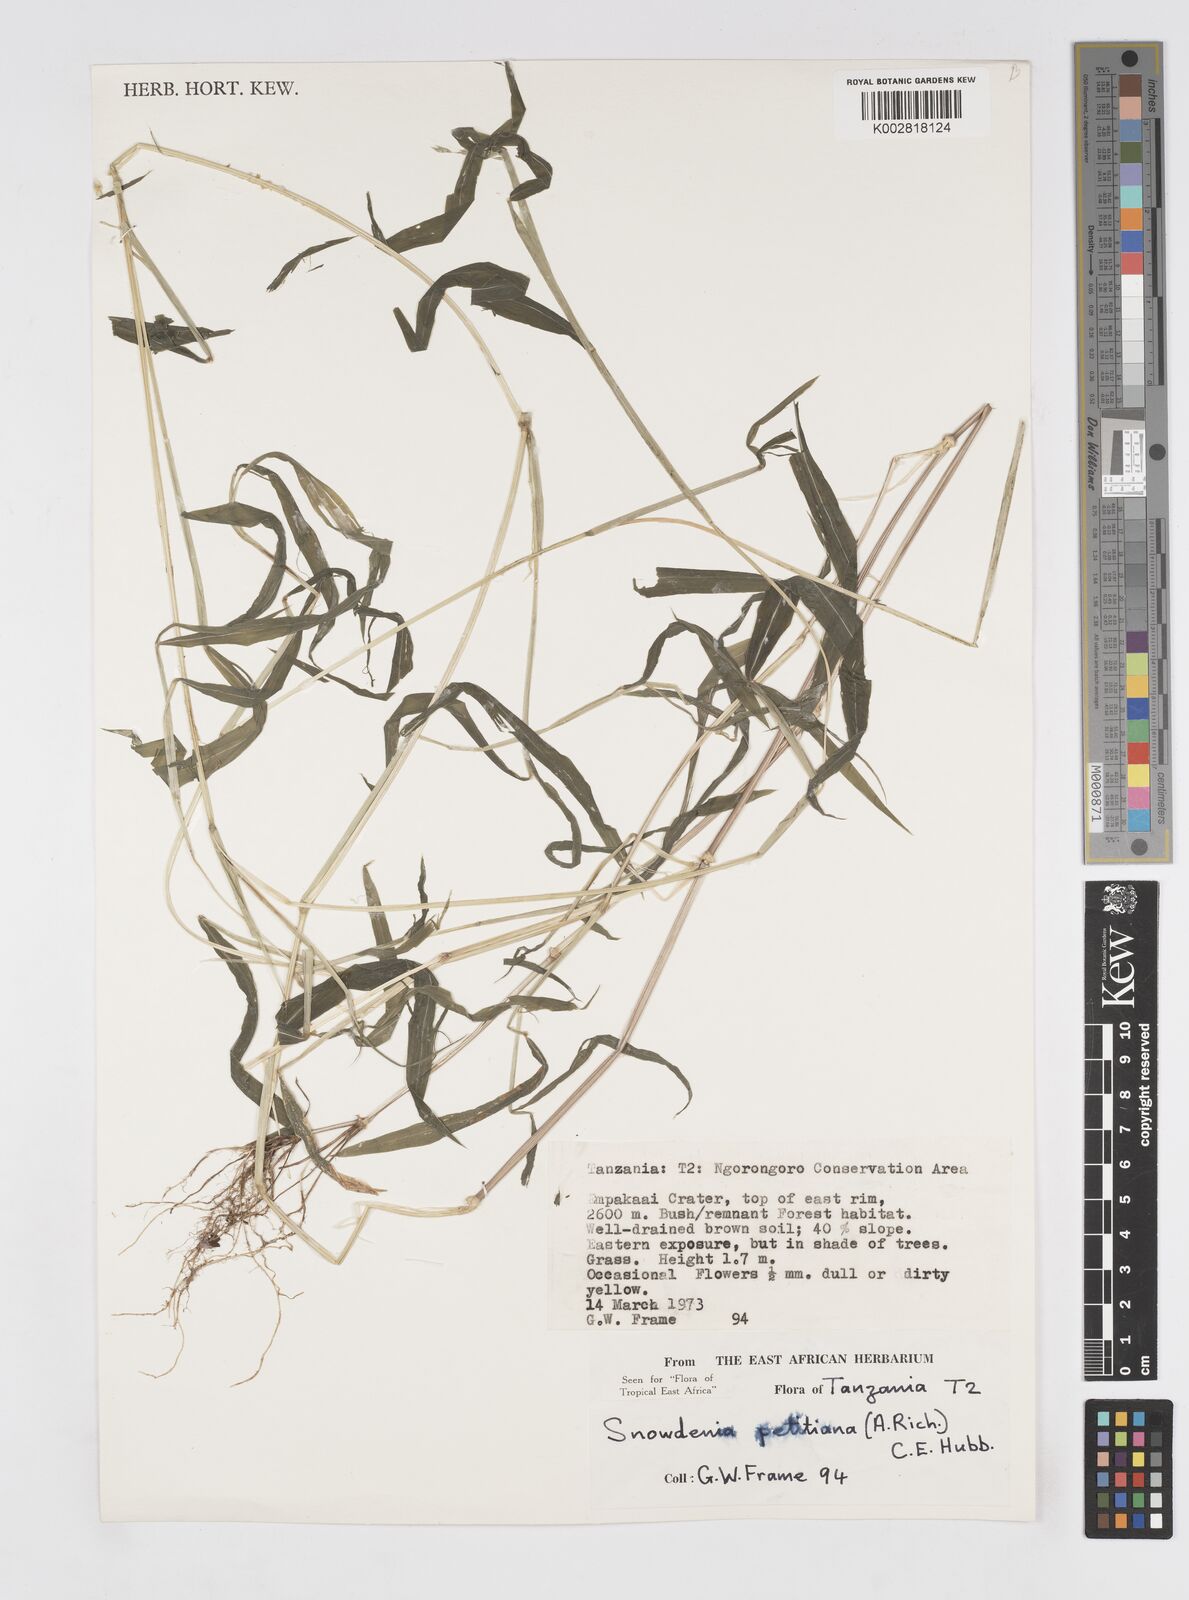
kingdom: Plantae
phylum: Tracheophyta
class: Liliopsida
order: Poales
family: Poaceae
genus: Snowdenia
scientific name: Snowdenia petitiana
